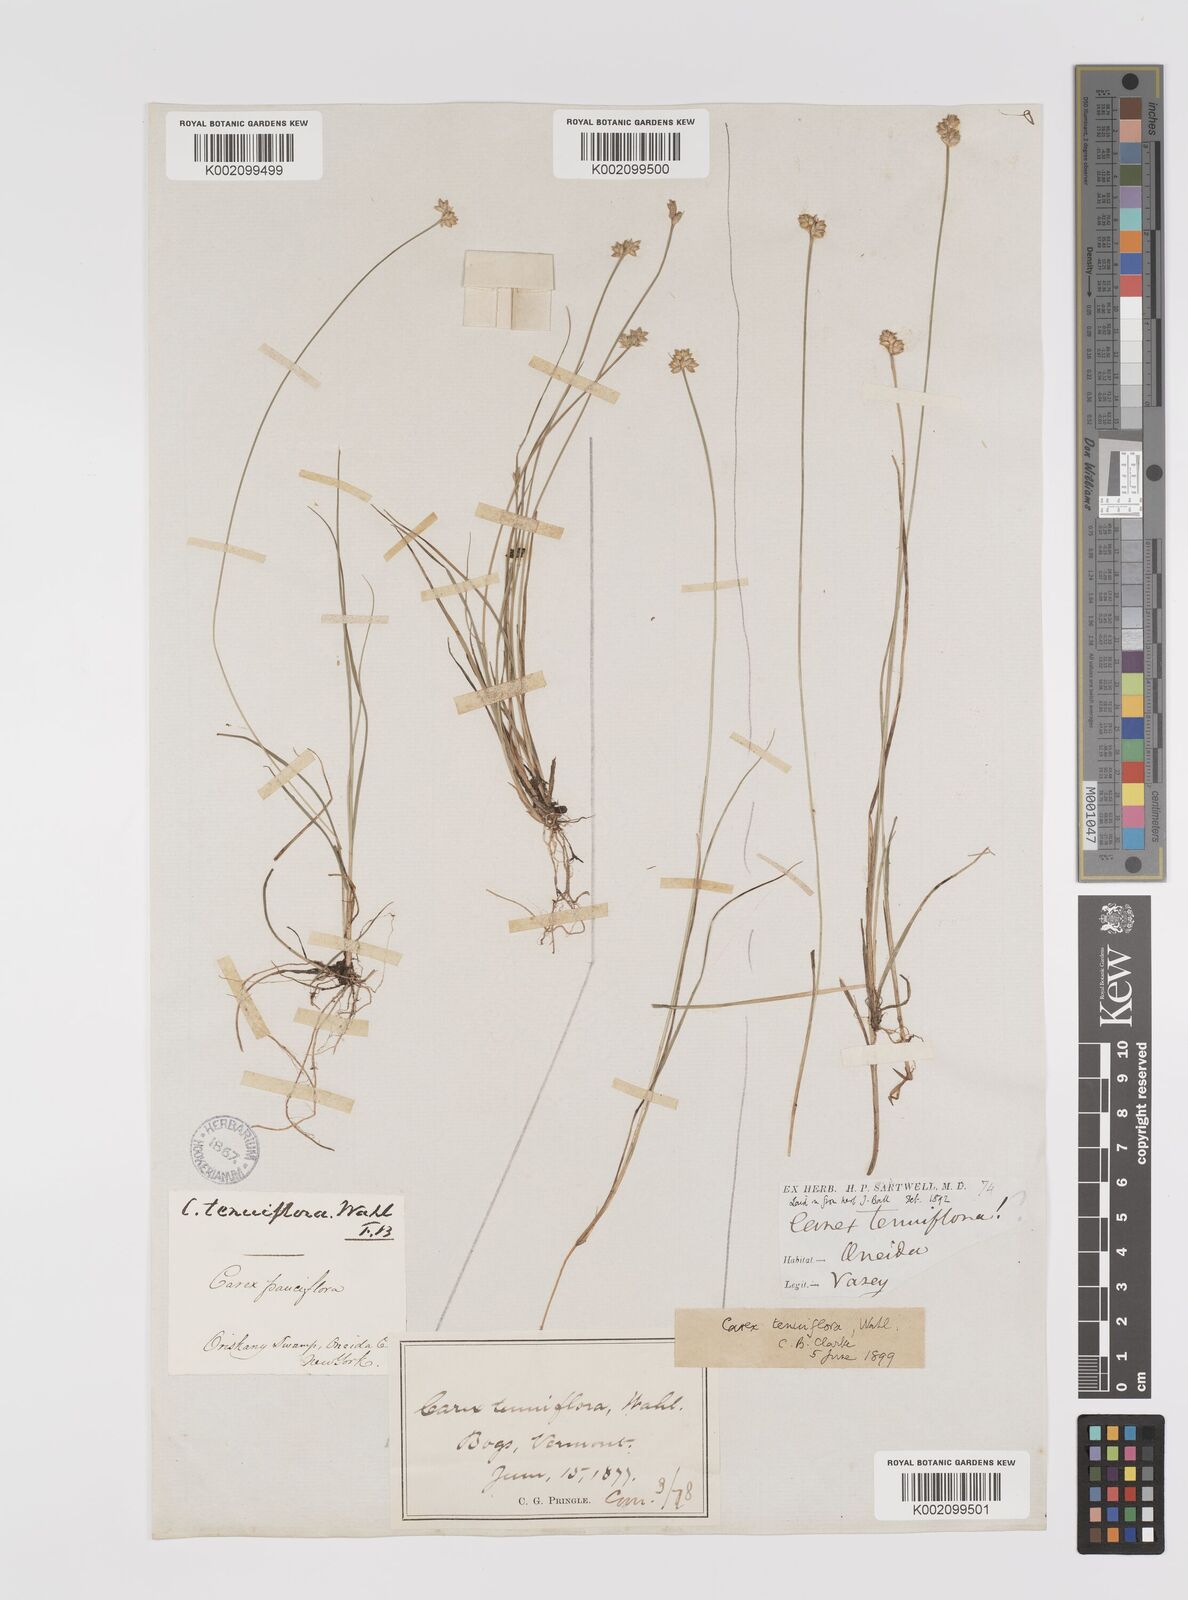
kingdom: Plantae
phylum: Tracheophyta
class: Liliopsida
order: Poales
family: Cyperaceae
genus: Carex
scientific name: Carex tenuiflora
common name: Sparse-flowered sedge
